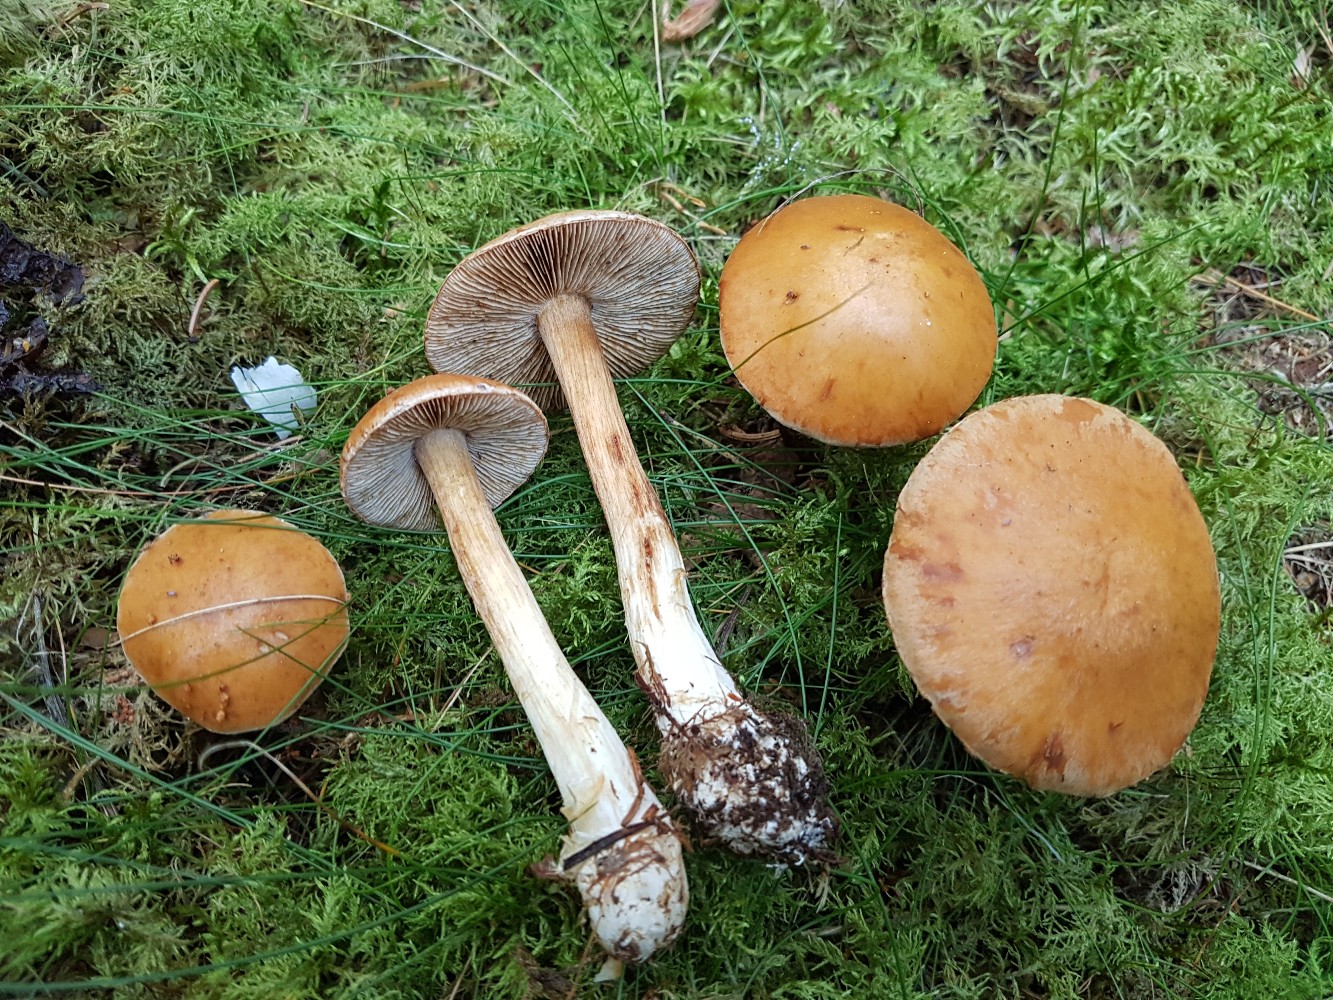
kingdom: Fungi
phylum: Basidiomycota
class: Agaricomycetes
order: Agaricales
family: Cortinariaceae
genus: Thaxterogaster
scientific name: Thaxterogaster multiformis
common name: honning-slørhat
